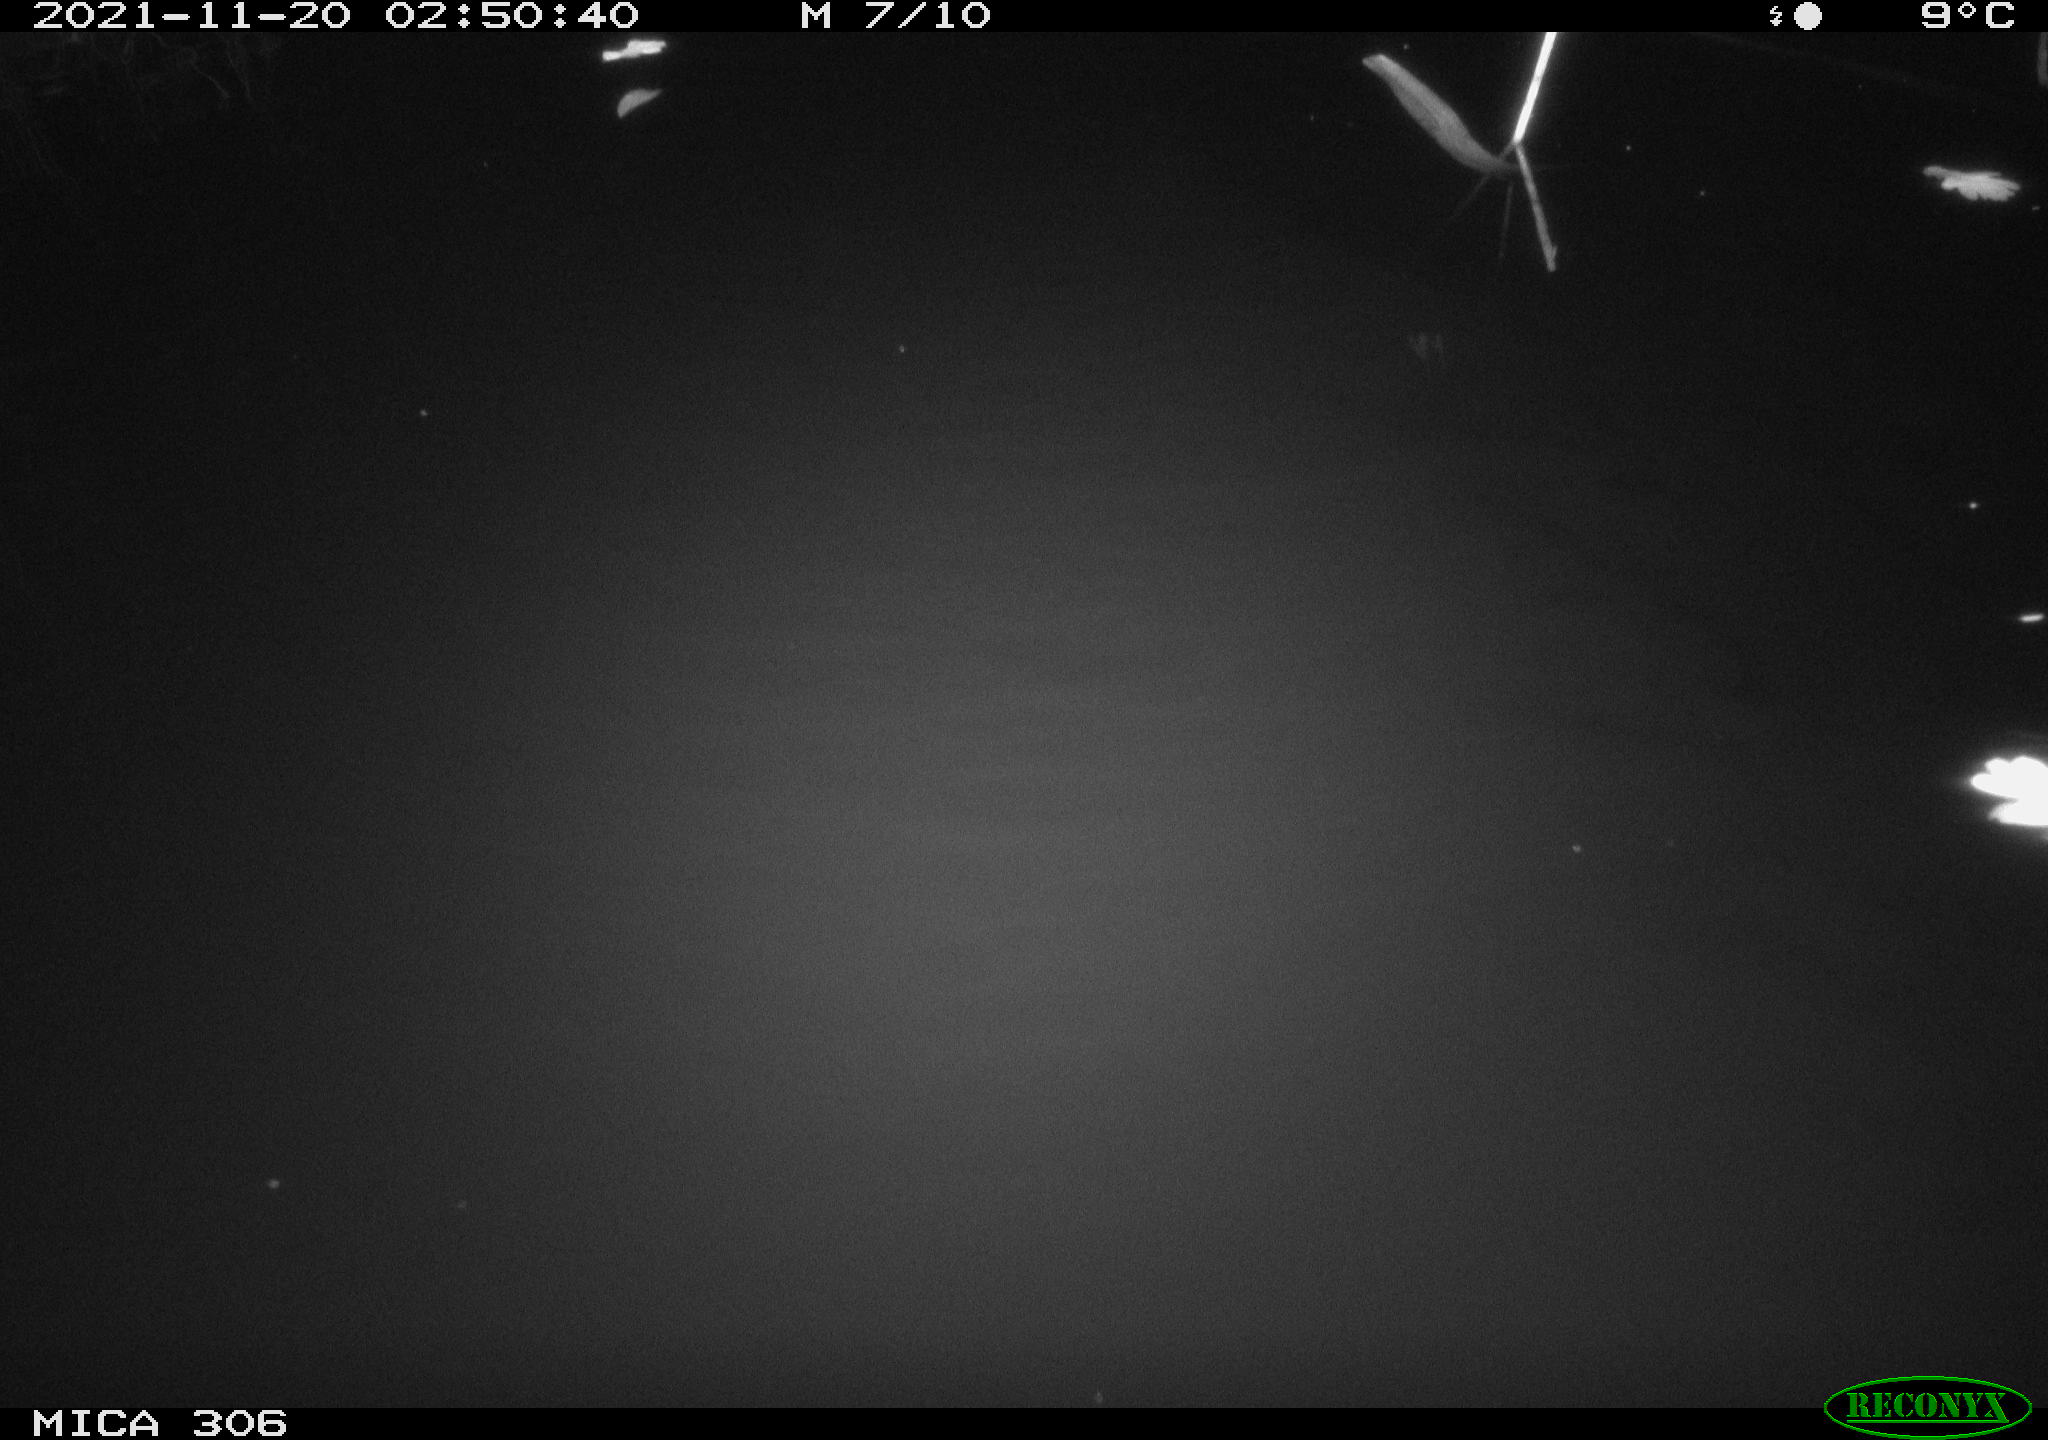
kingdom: Animalia
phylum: Chordata
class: Aves
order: Gruiformes
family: Rallidae
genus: Fulica
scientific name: Fulica atra
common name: Eurasian coot
